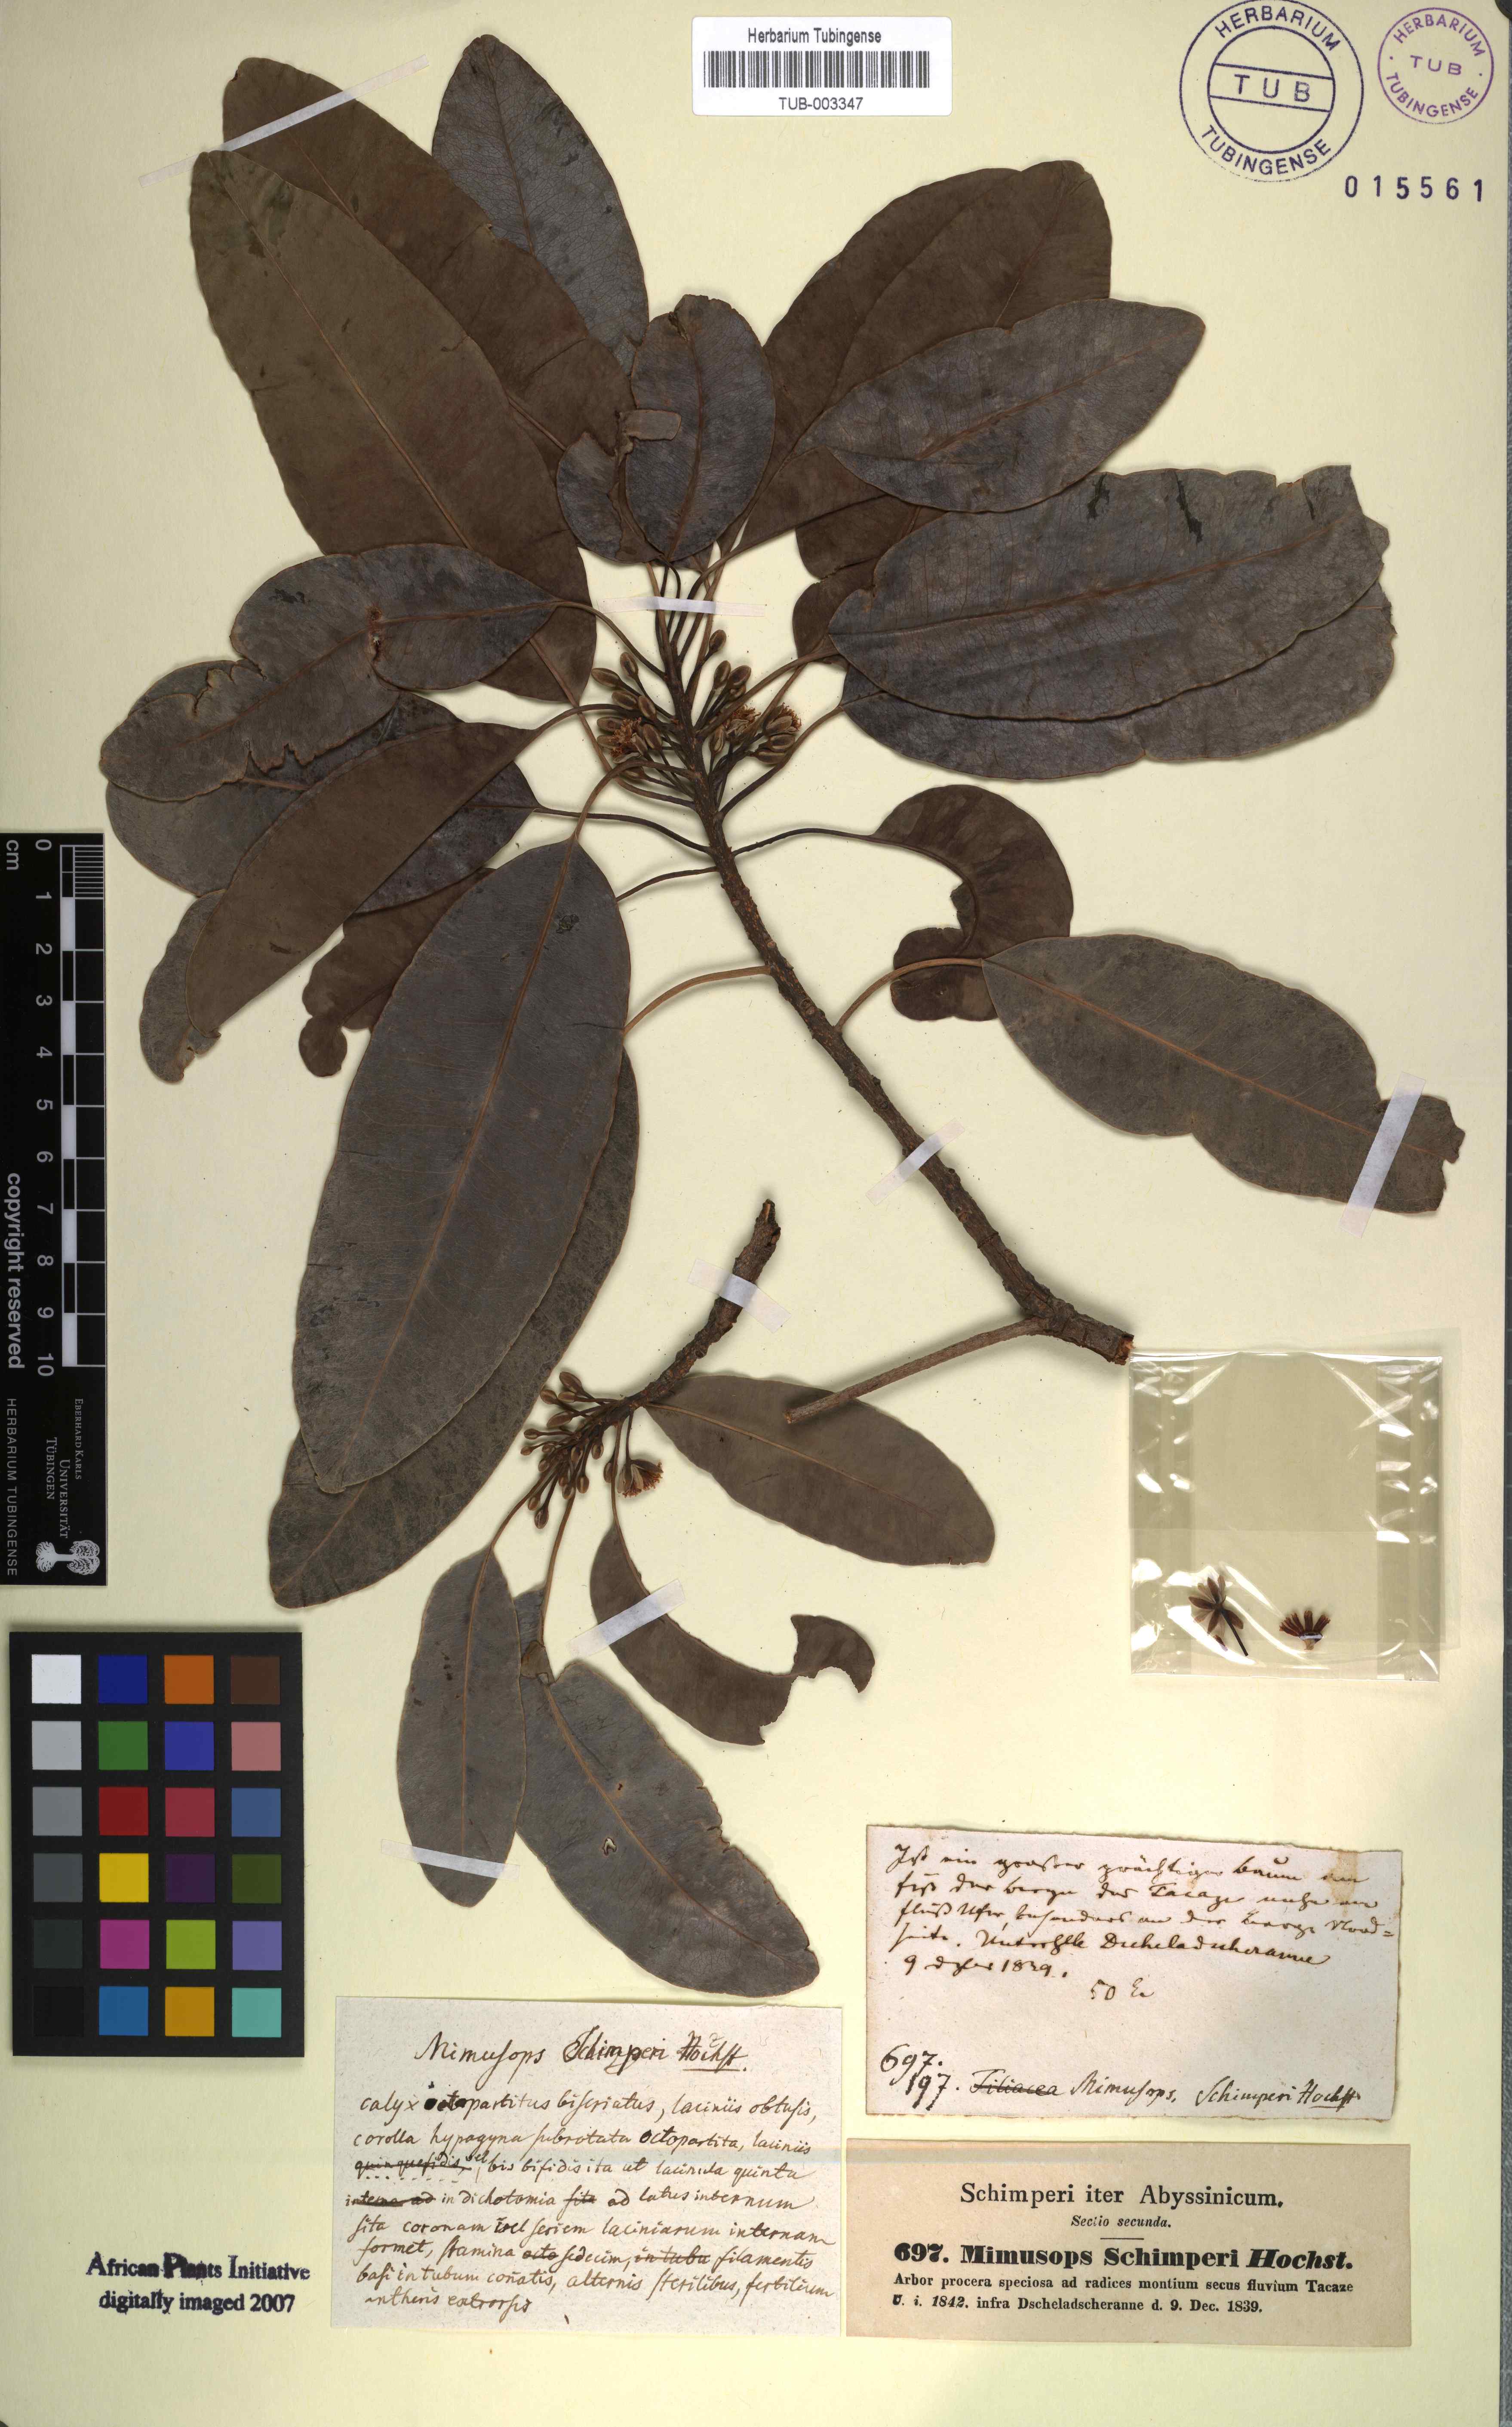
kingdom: Plantae
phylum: Tracheophyta
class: Magnoliopsida
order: Ericales
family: Sapotaceae
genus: Mimusops
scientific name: Mimusops laurifolia
